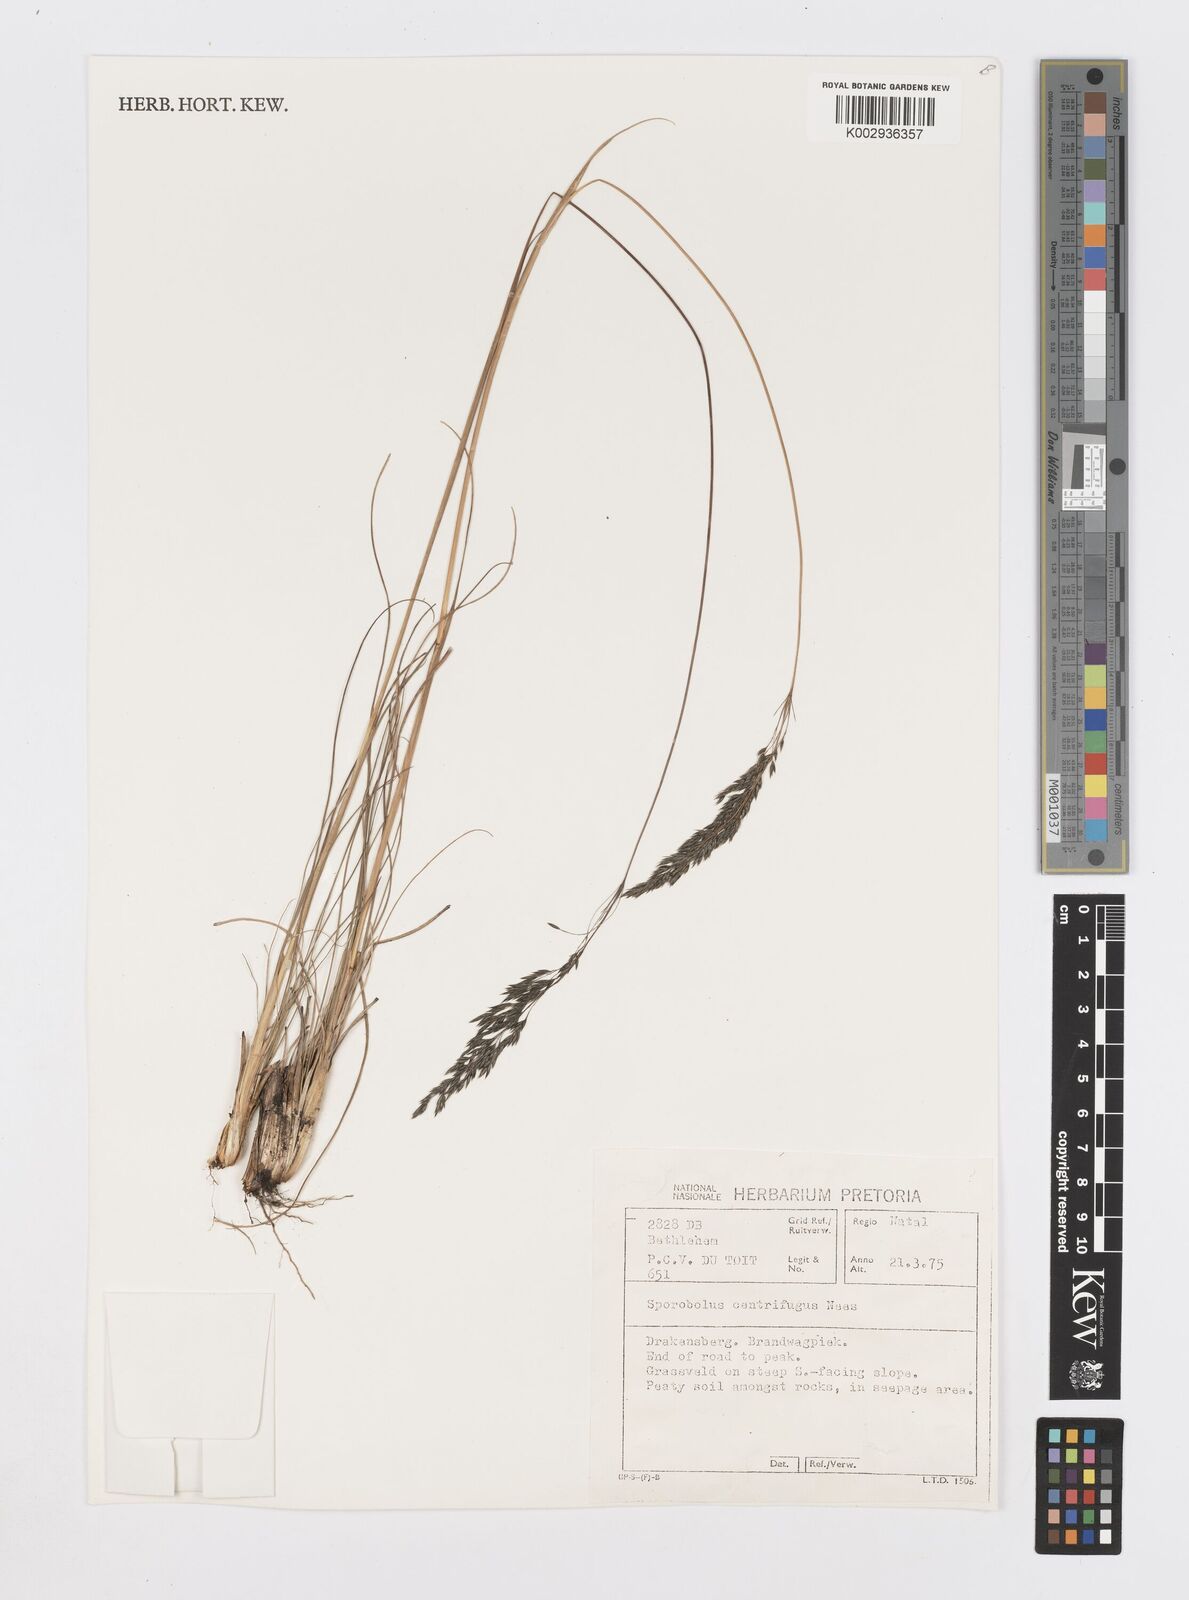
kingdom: Plantae
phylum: Tracheophyta
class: Liliopsida
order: Poales
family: Poaceae
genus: Sporobolus
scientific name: Sporobolus centrifugus
